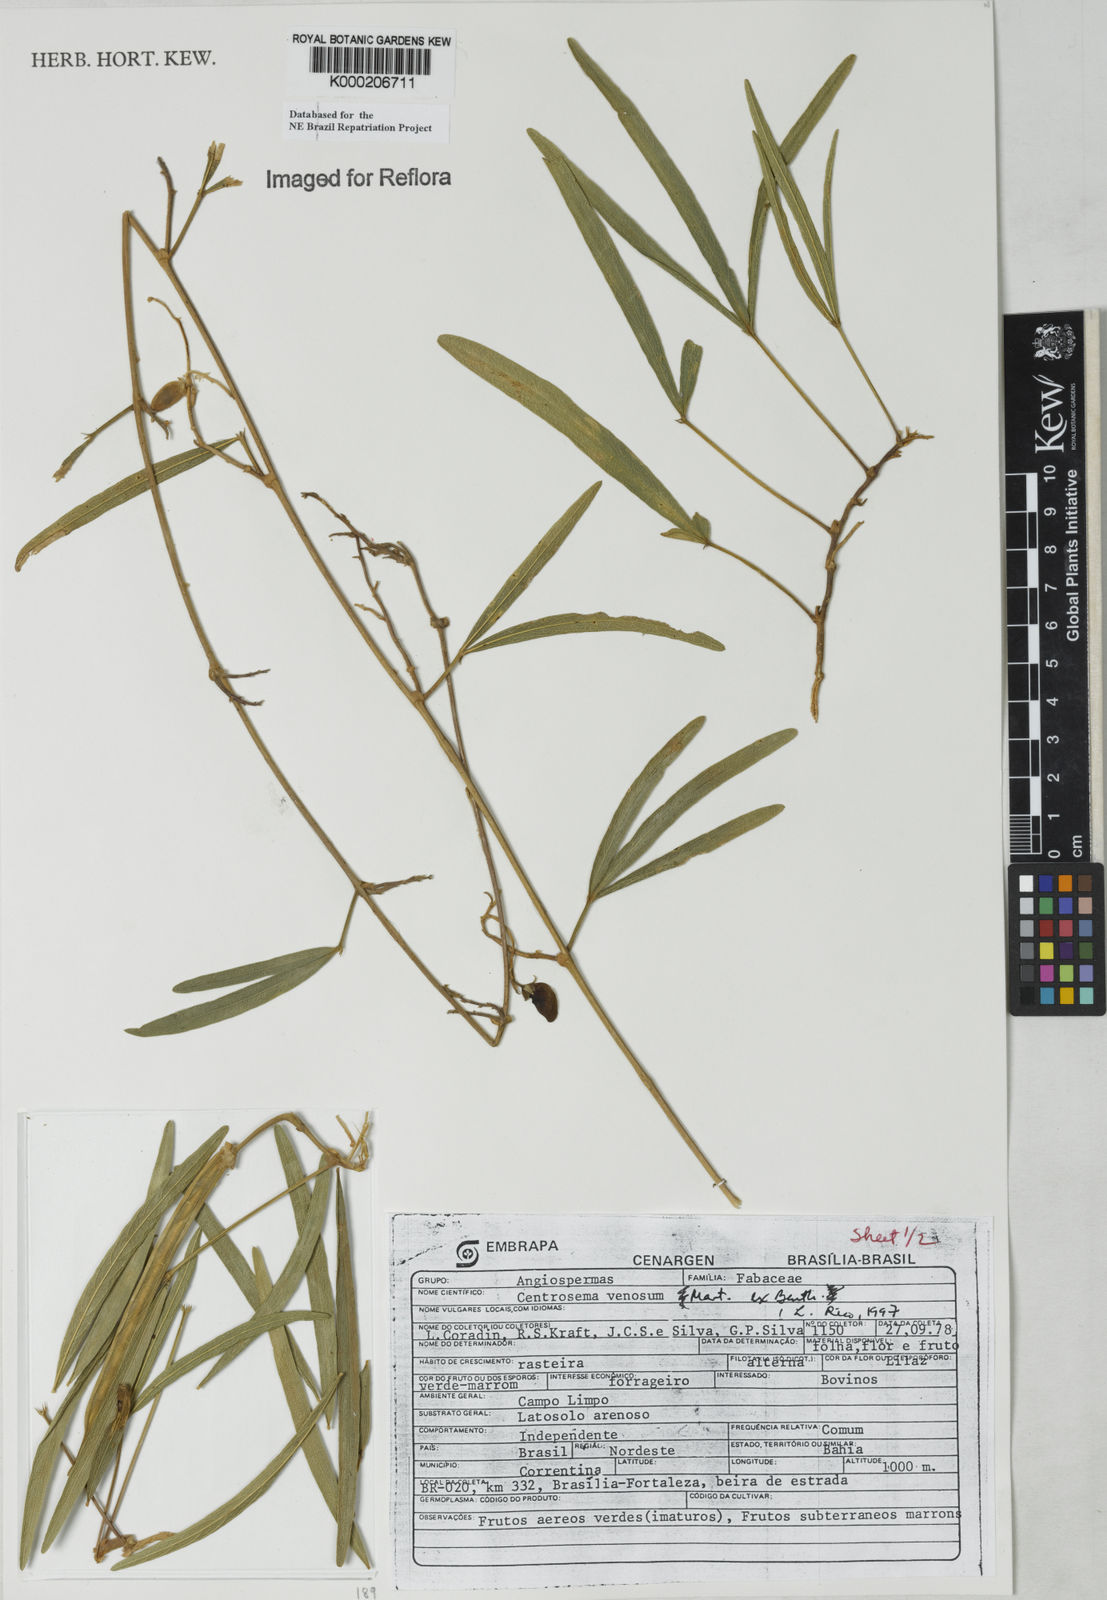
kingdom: Plantae
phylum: Tracheophyta
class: Magnoliopsida
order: Fabales
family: Fabaceae
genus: Centrosema
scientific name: Centrosema venosum
